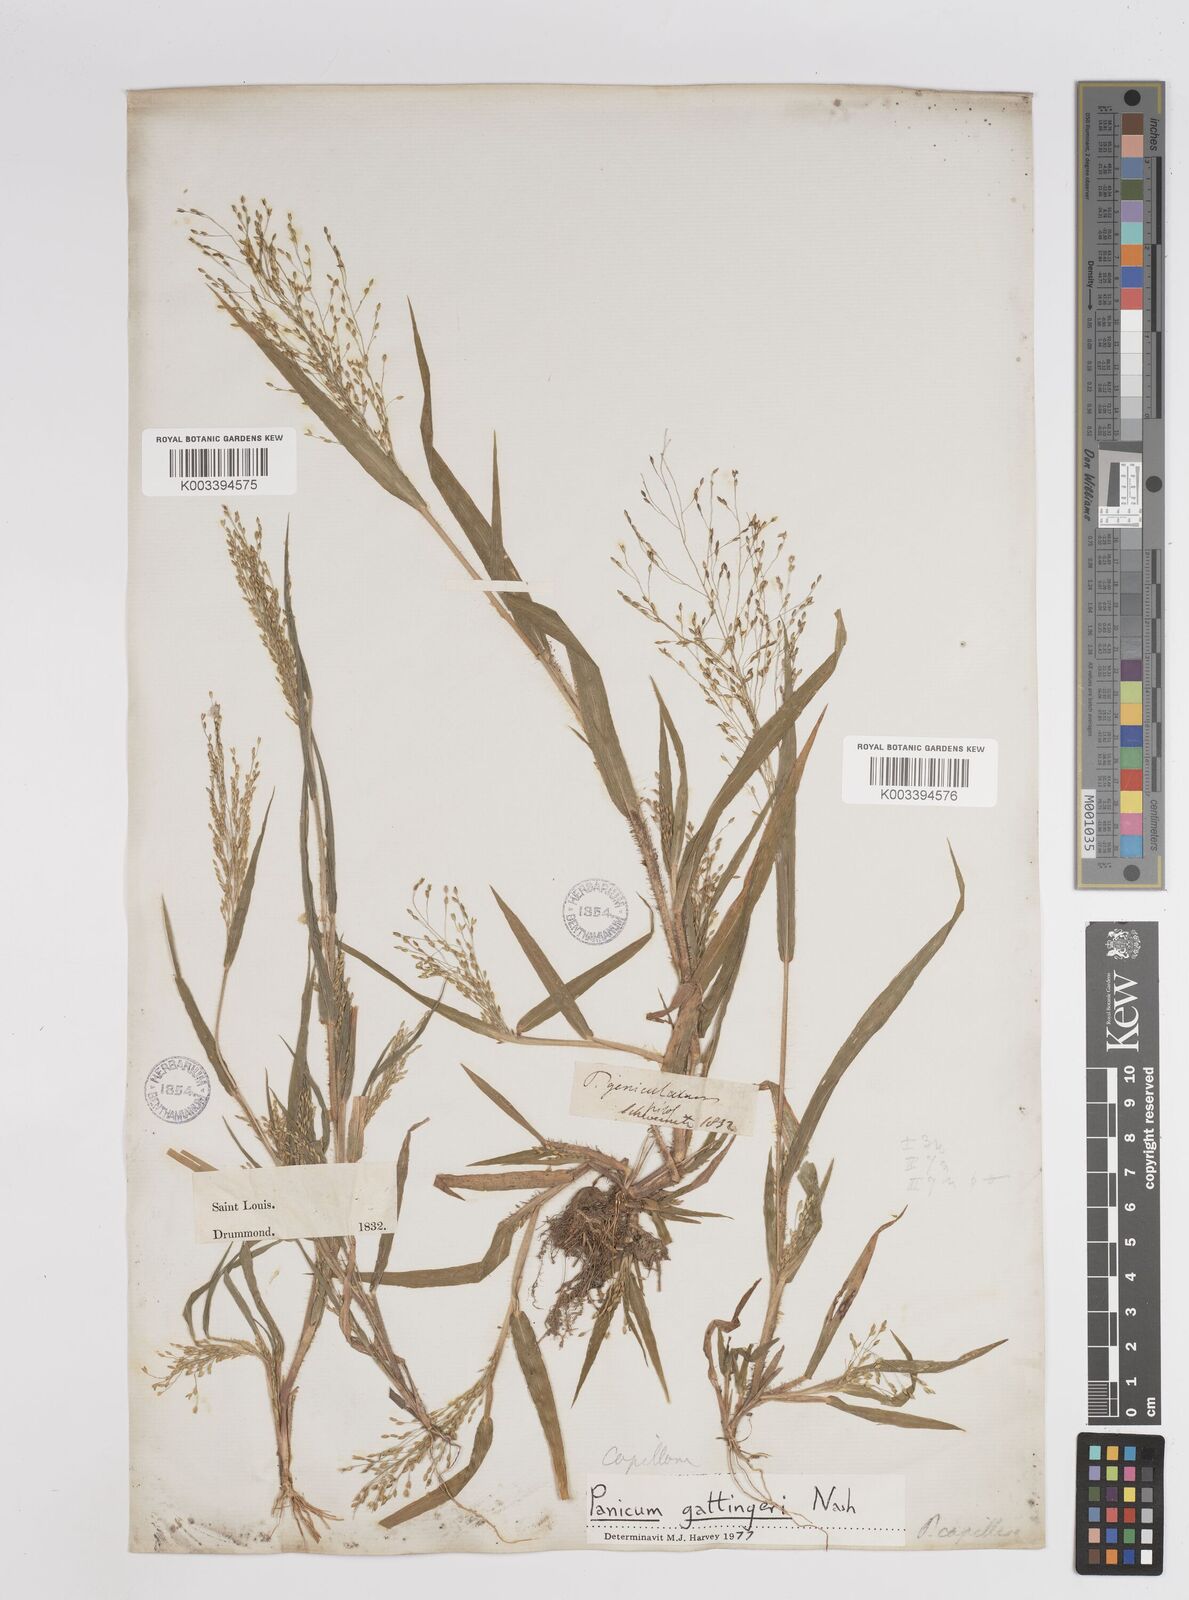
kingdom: Plantae
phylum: Tracheophyta
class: Liliopsida
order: Poales
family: Poaceae
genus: Panicum
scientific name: Panicum gattingeri
